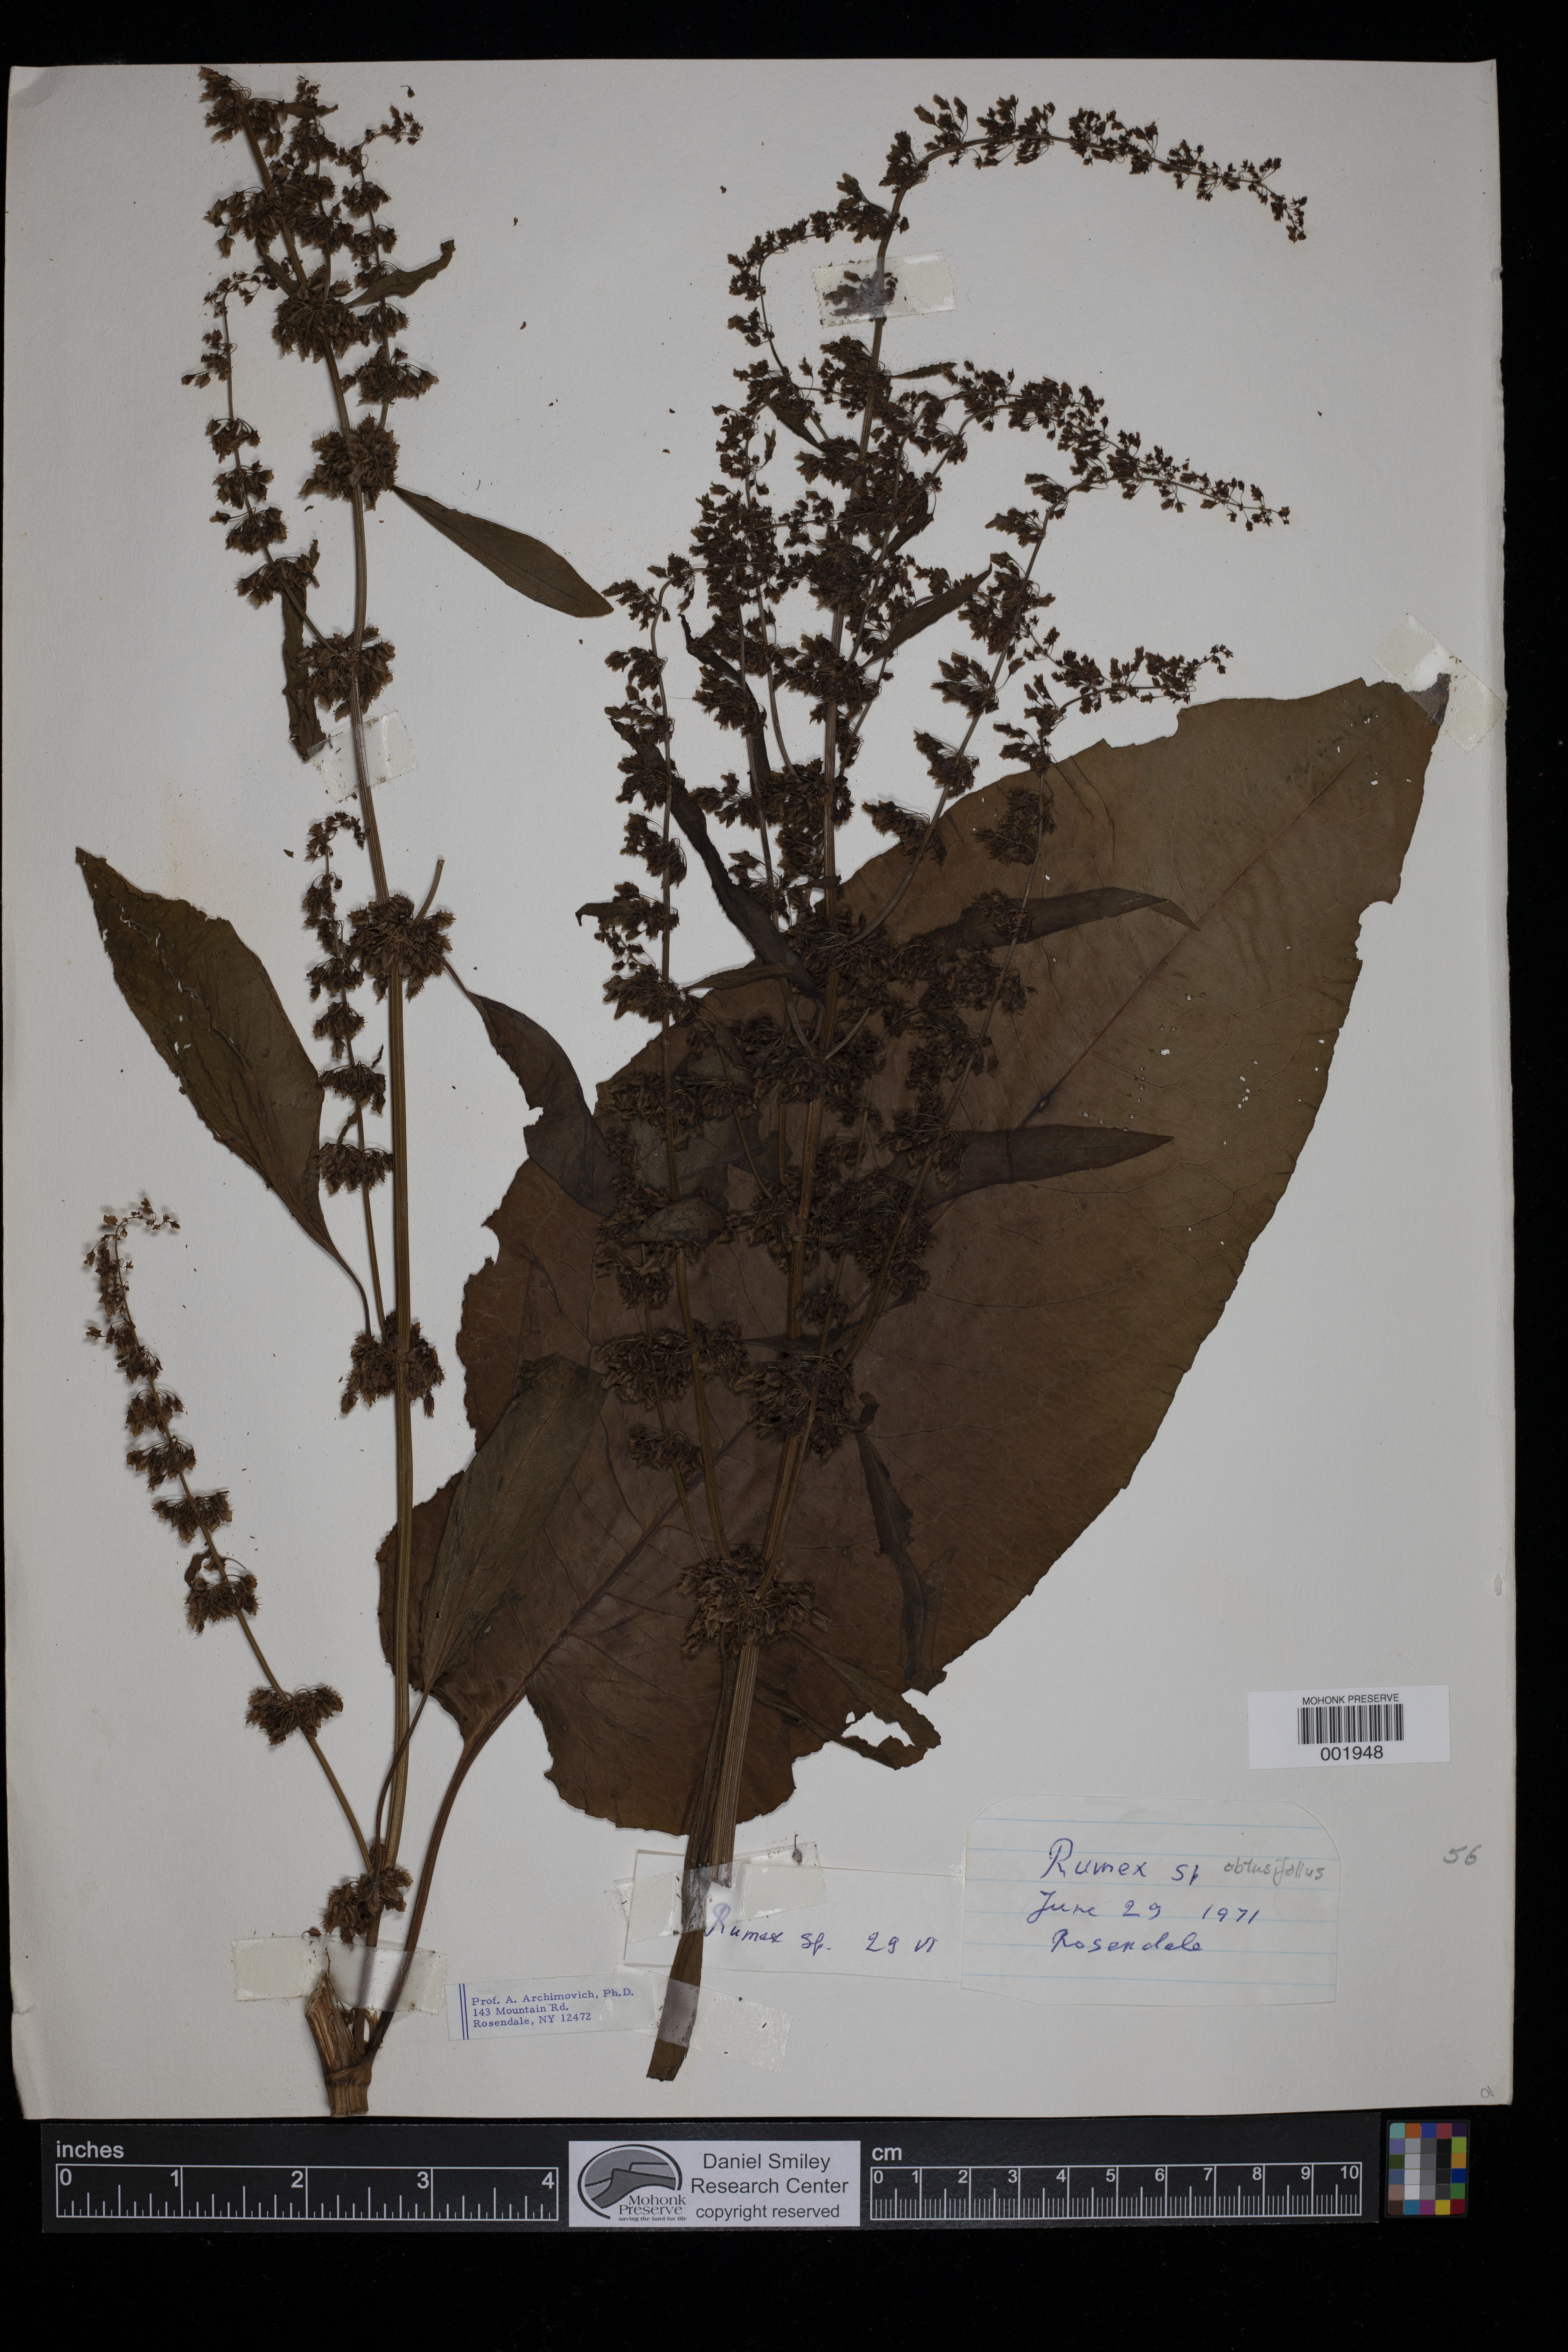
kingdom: Plantae
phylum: Tracheophyta
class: Magnoliopsida
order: Caryophyllales
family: Polygonaceae
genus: Rumex
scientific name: Rumex obtusifolius
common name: Bitter dock
